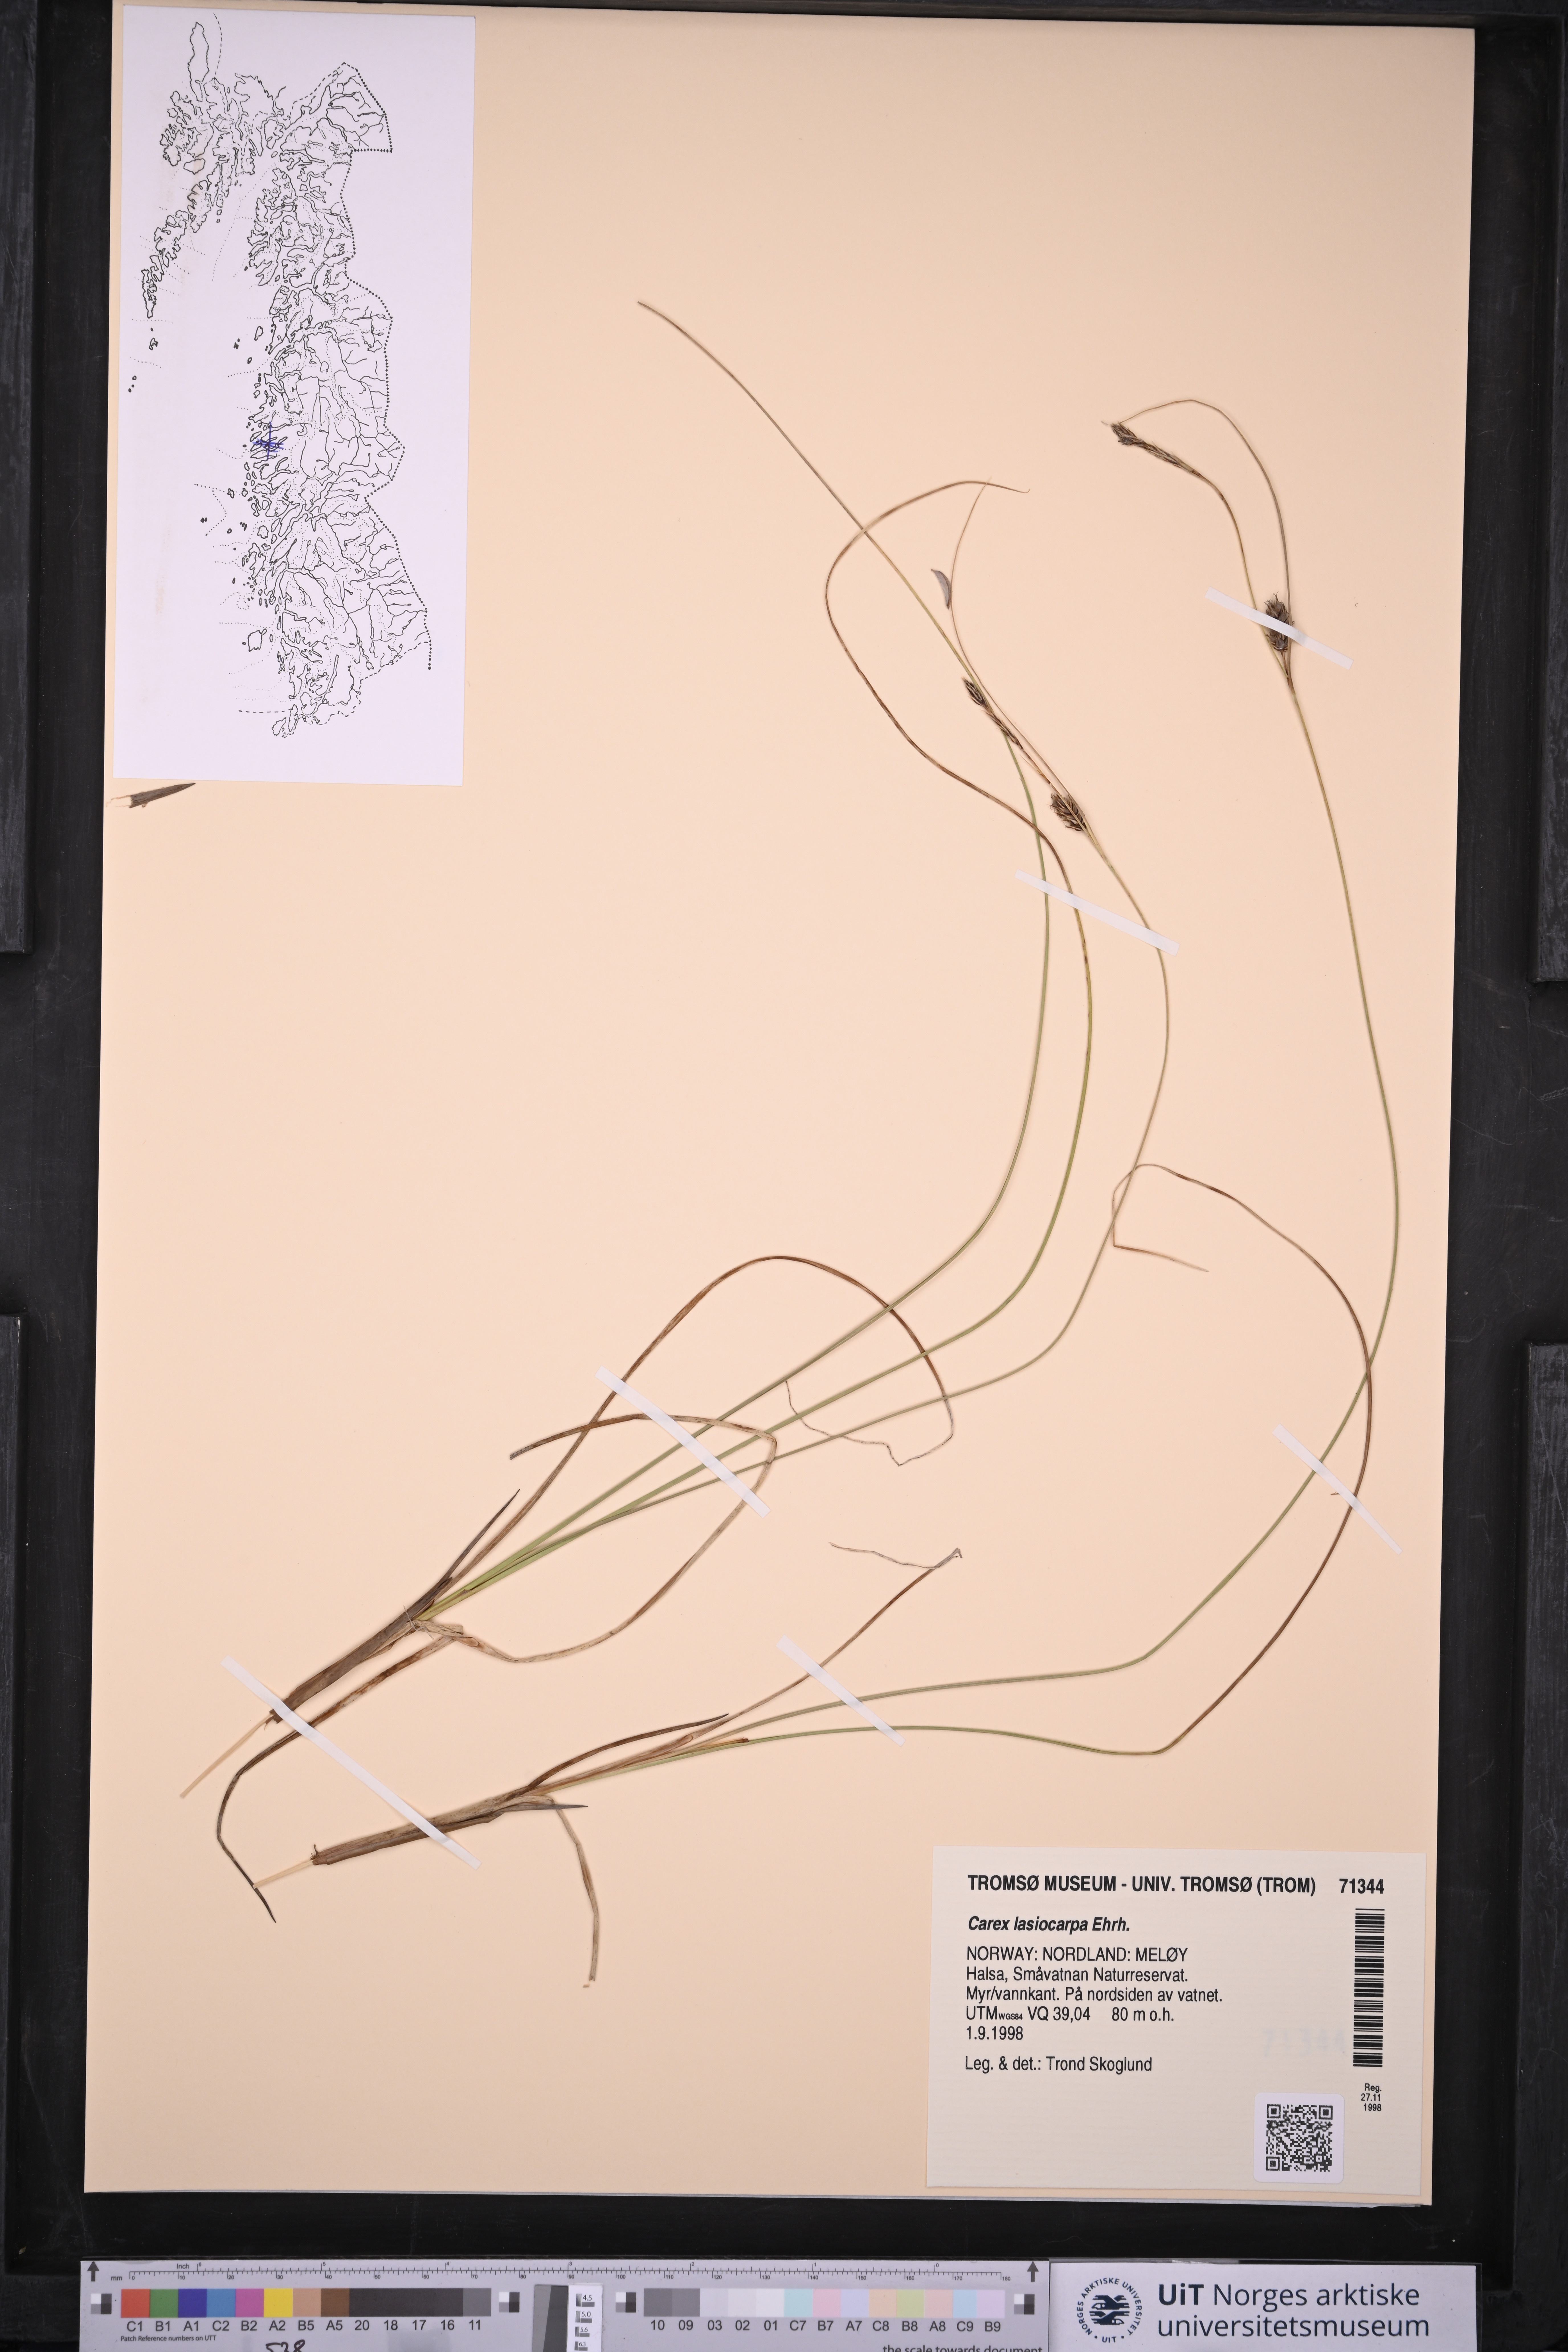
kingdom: Plantae
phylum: Tracheophyta
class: Liliopsida
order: Poales
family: Cyperaceae
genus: Carex
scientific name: Carex lasiocarpa
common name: Slender sedge
